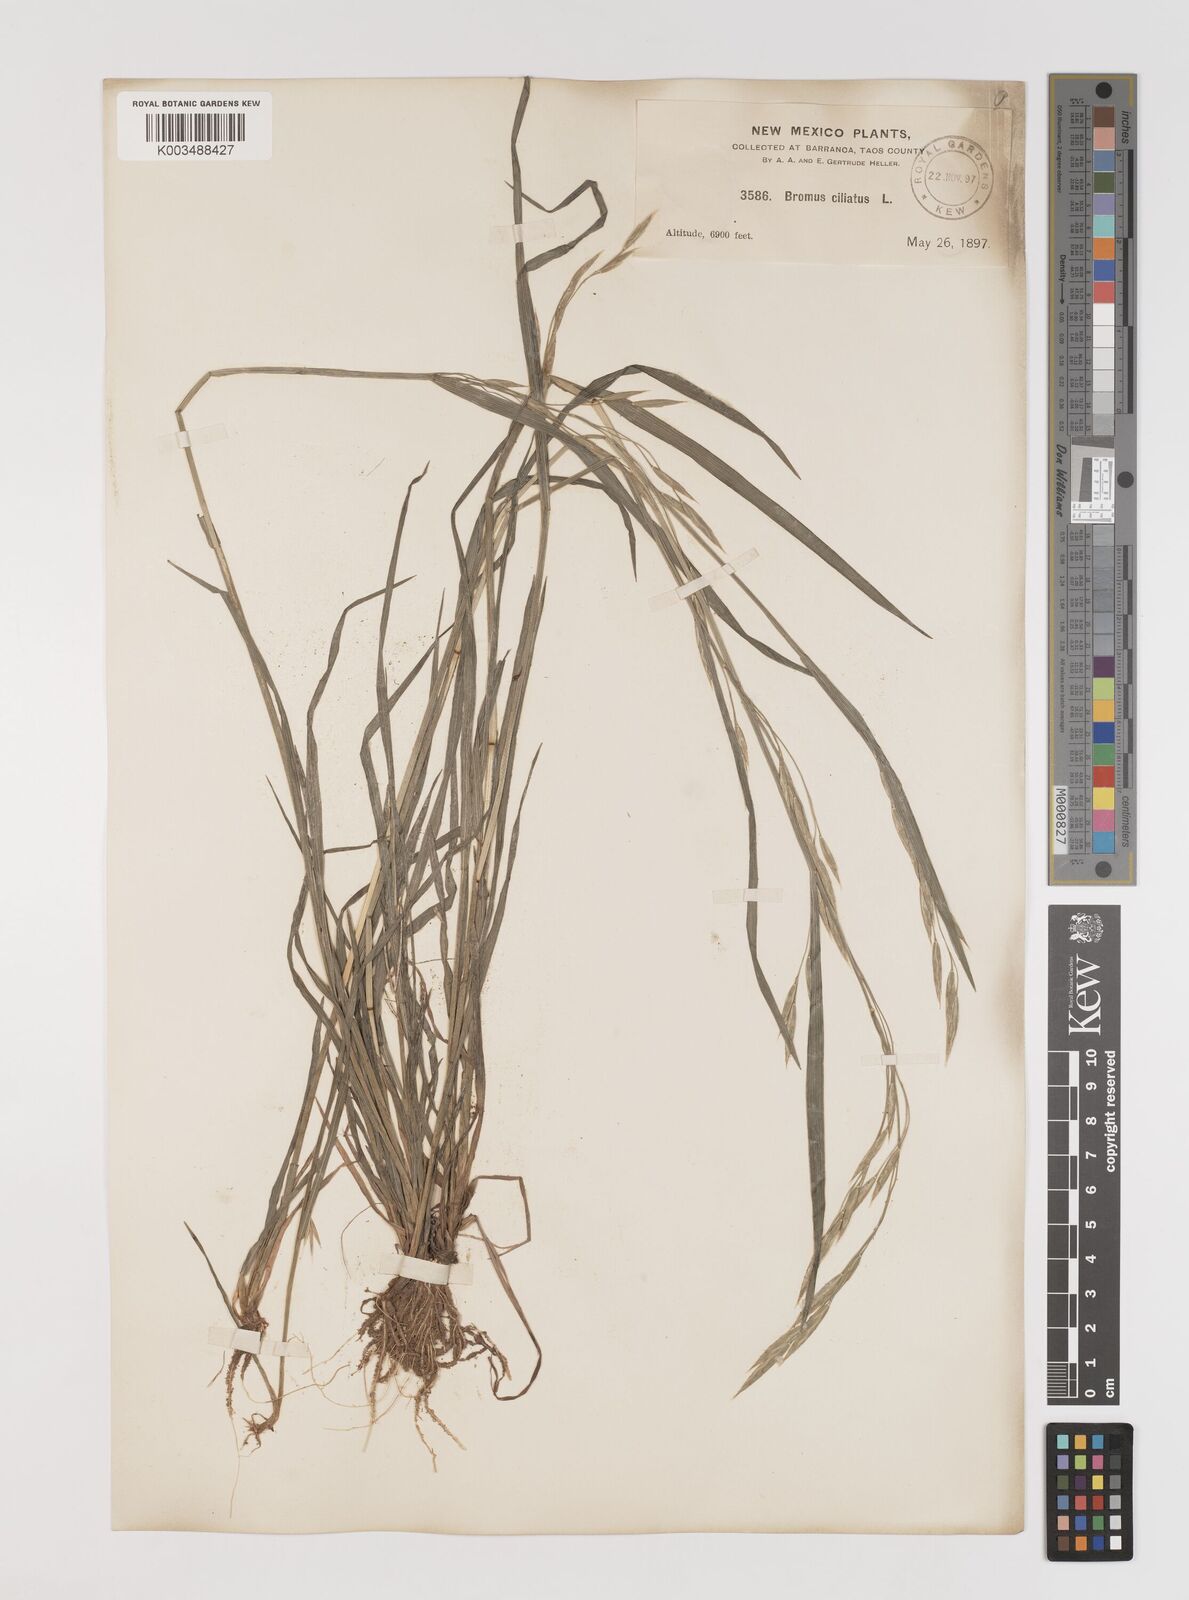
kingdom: Plantae
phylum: Tracheophyta
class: Liliopsida
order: Poales
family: Poaceae
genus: Bromus
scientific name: Bromus ciliatus
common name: Fringe brome
